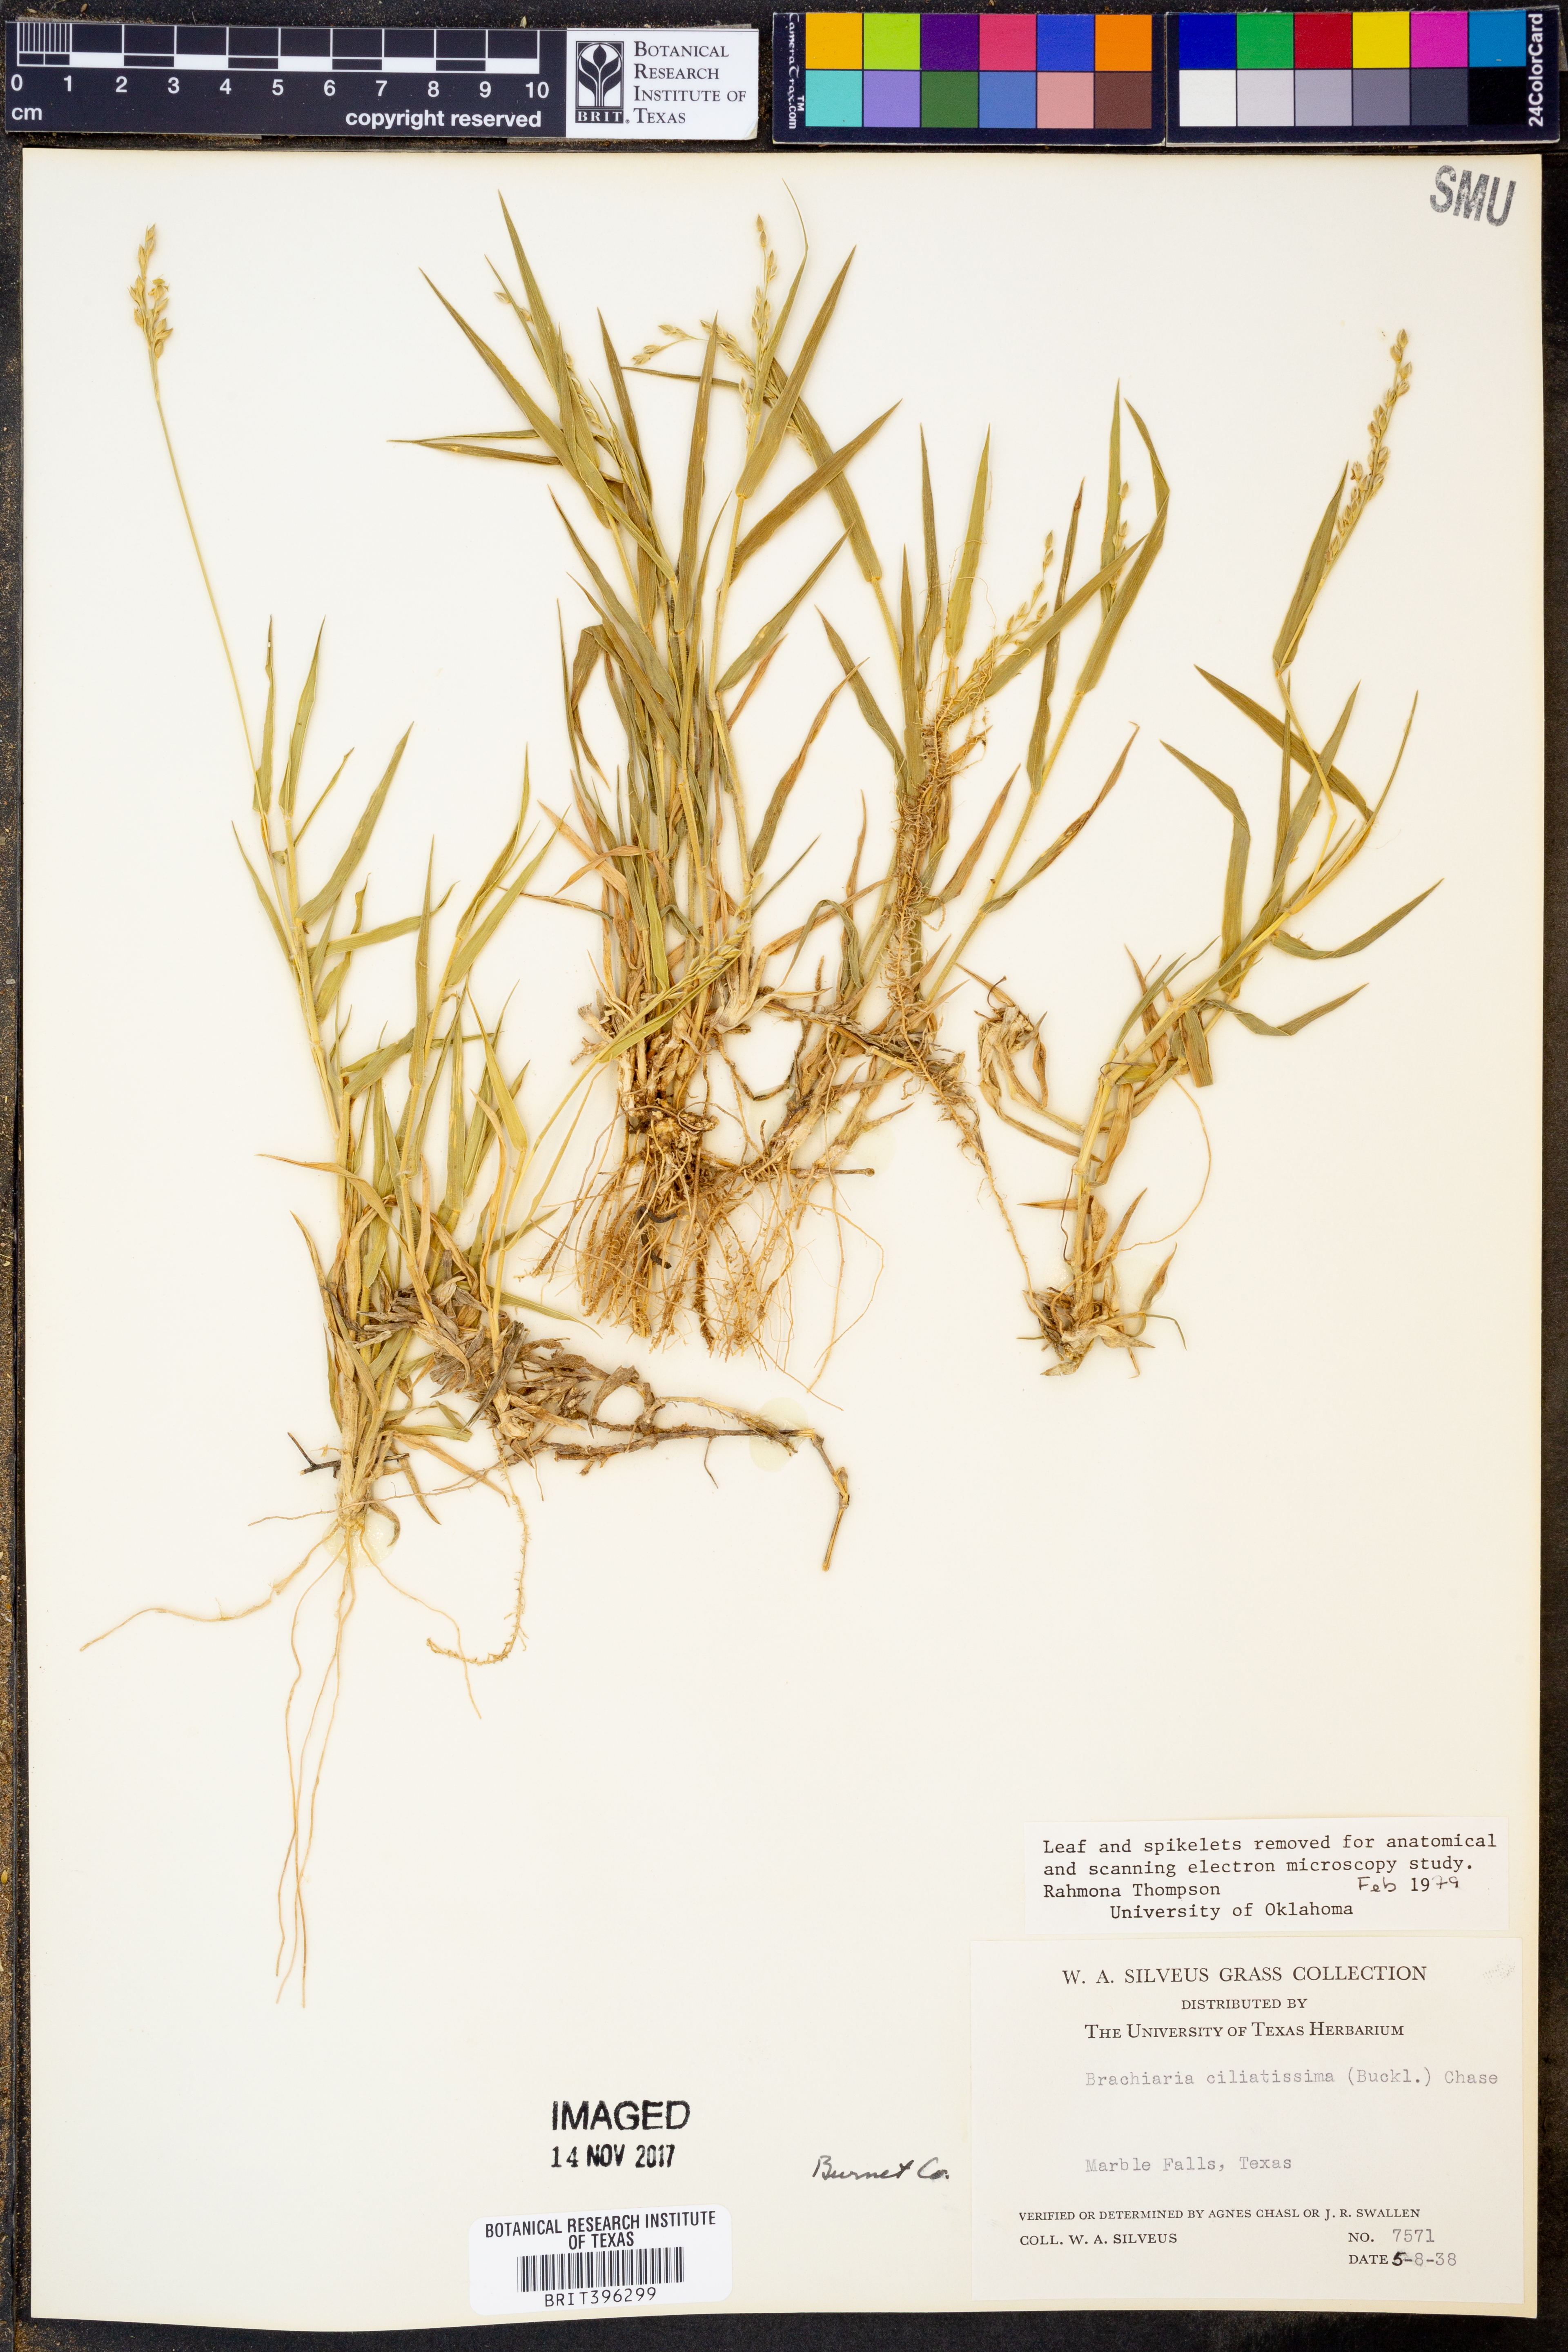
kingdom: Plantae
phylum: Tracheophyta
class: Liliopsida
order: Poales
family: Poaceae
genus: Urochloa
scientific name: Urochloa ciliatissima
